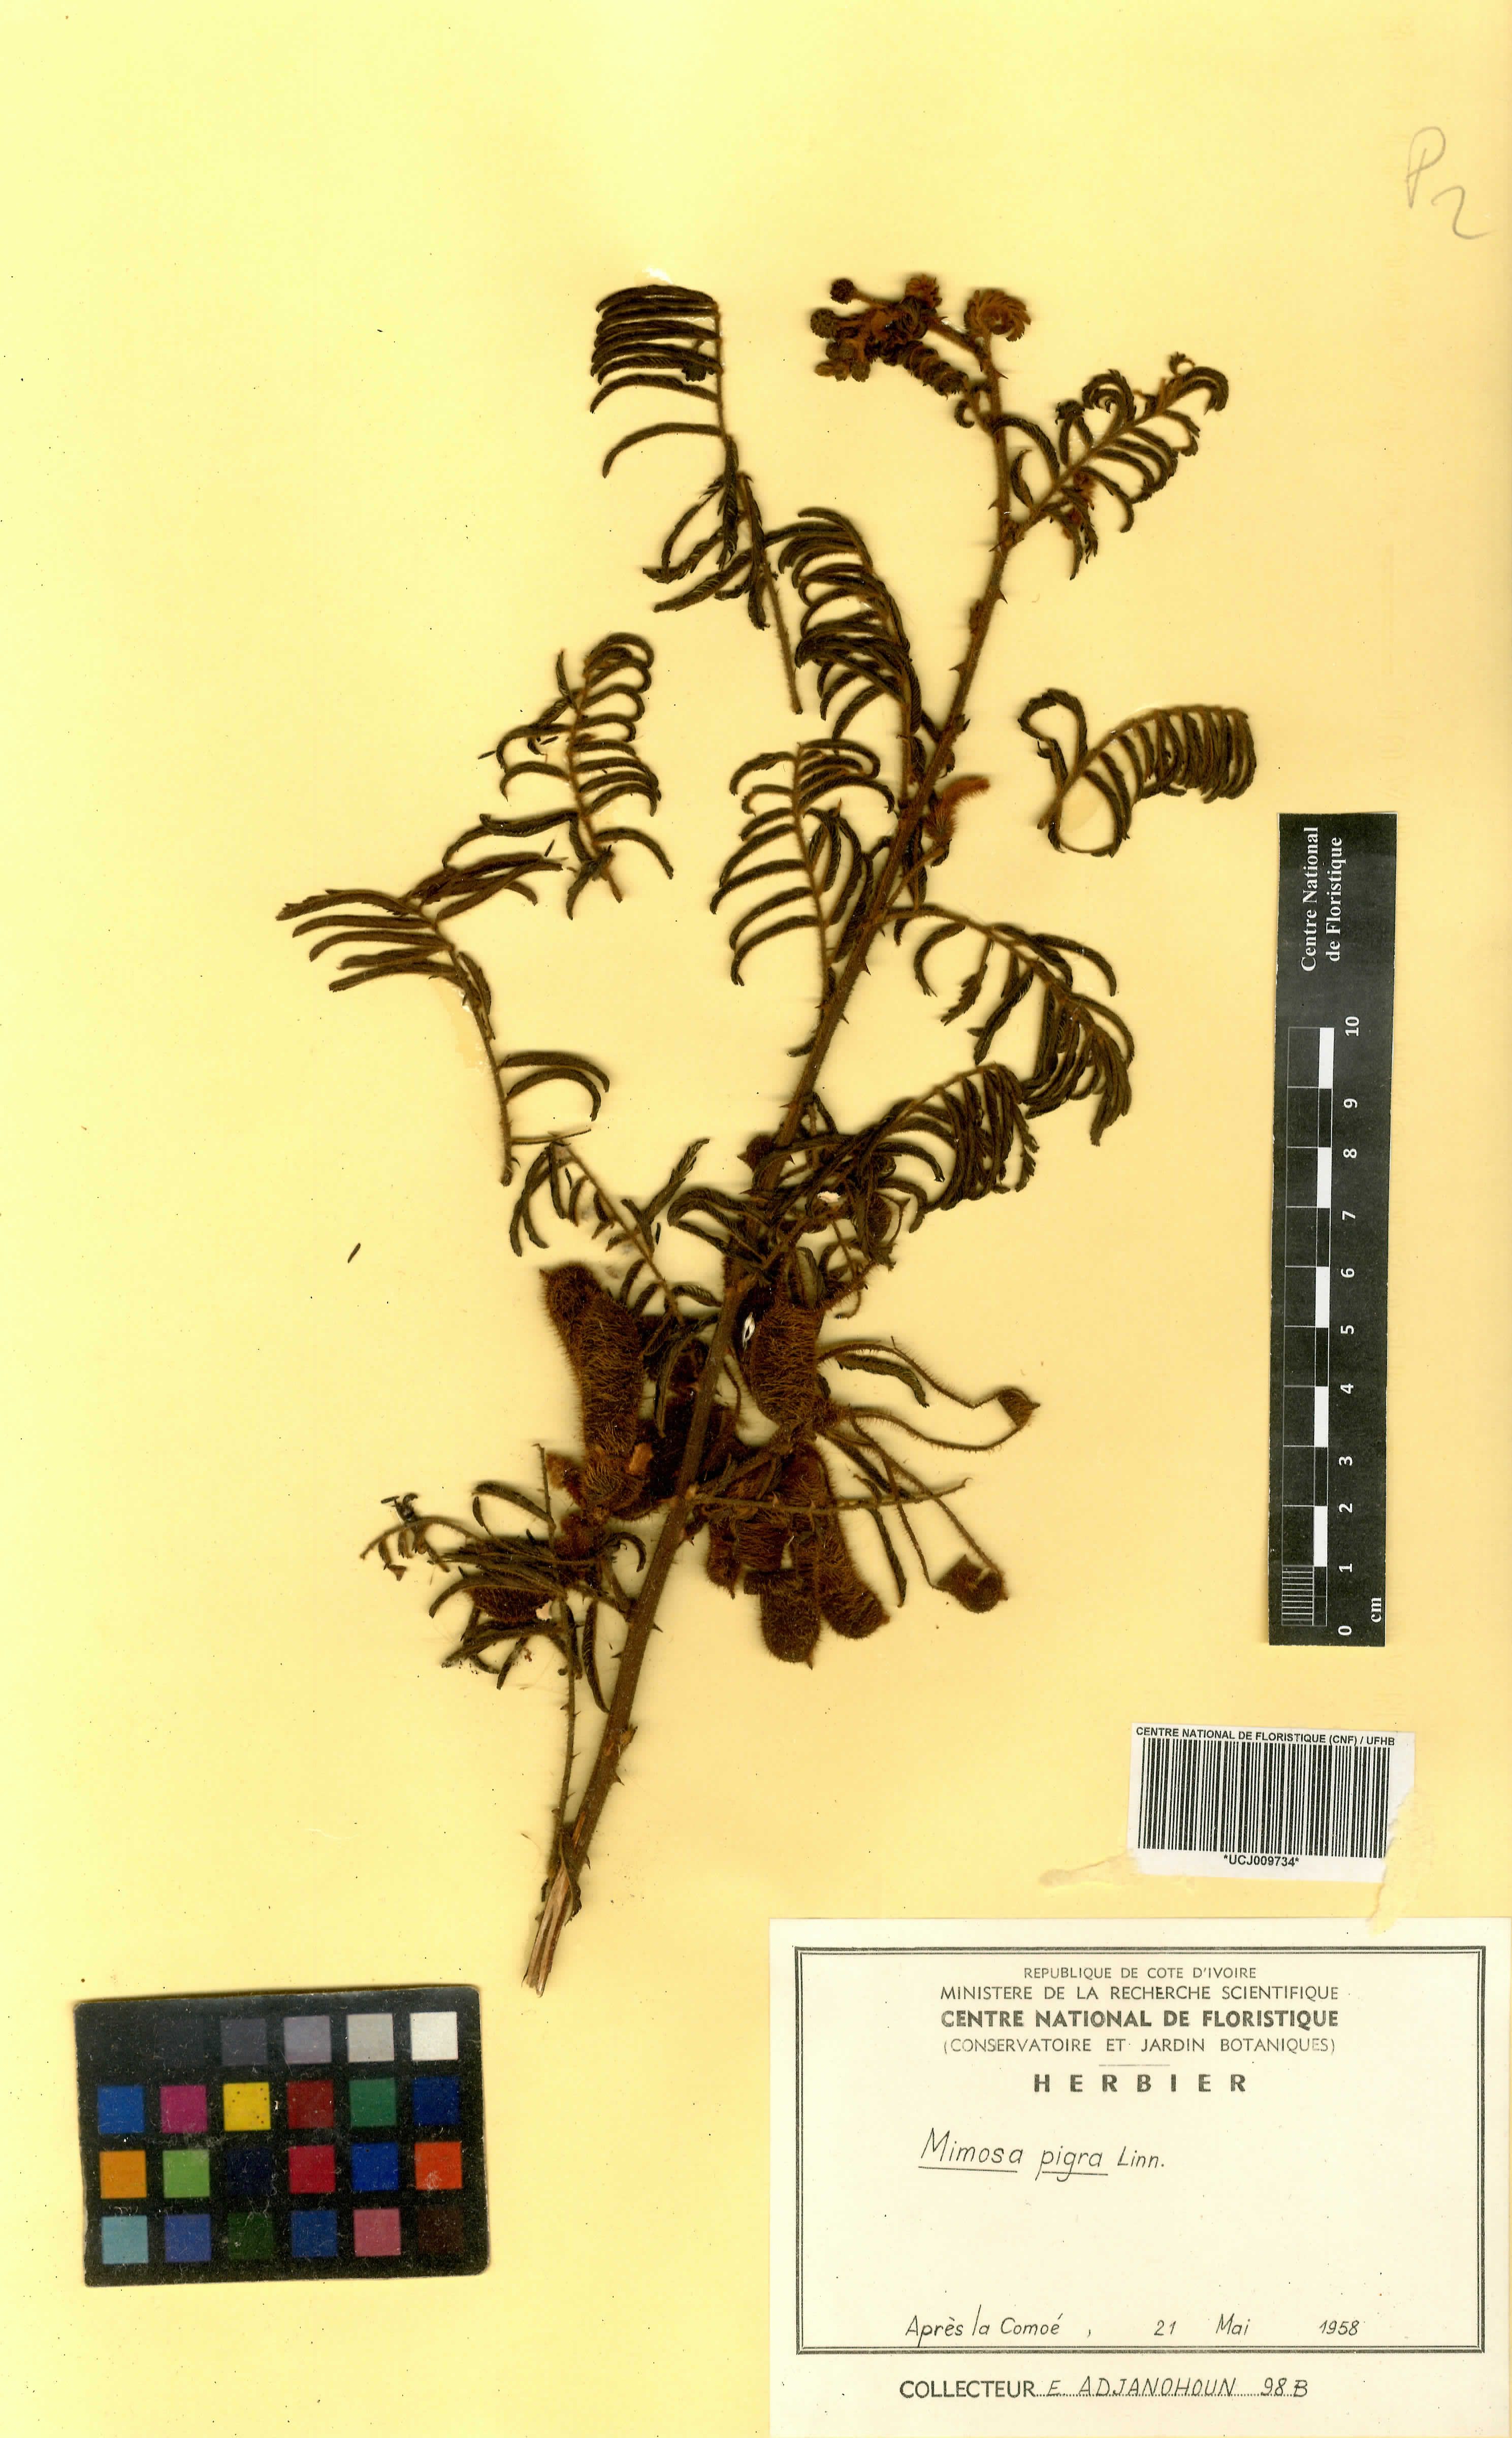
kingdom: Plantae
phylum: Tracheophyta
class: Magnoliopsida
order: Fabales
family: Fabaceae
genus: Mimosa
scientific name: Mimosa pigra
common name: Black mimosa
